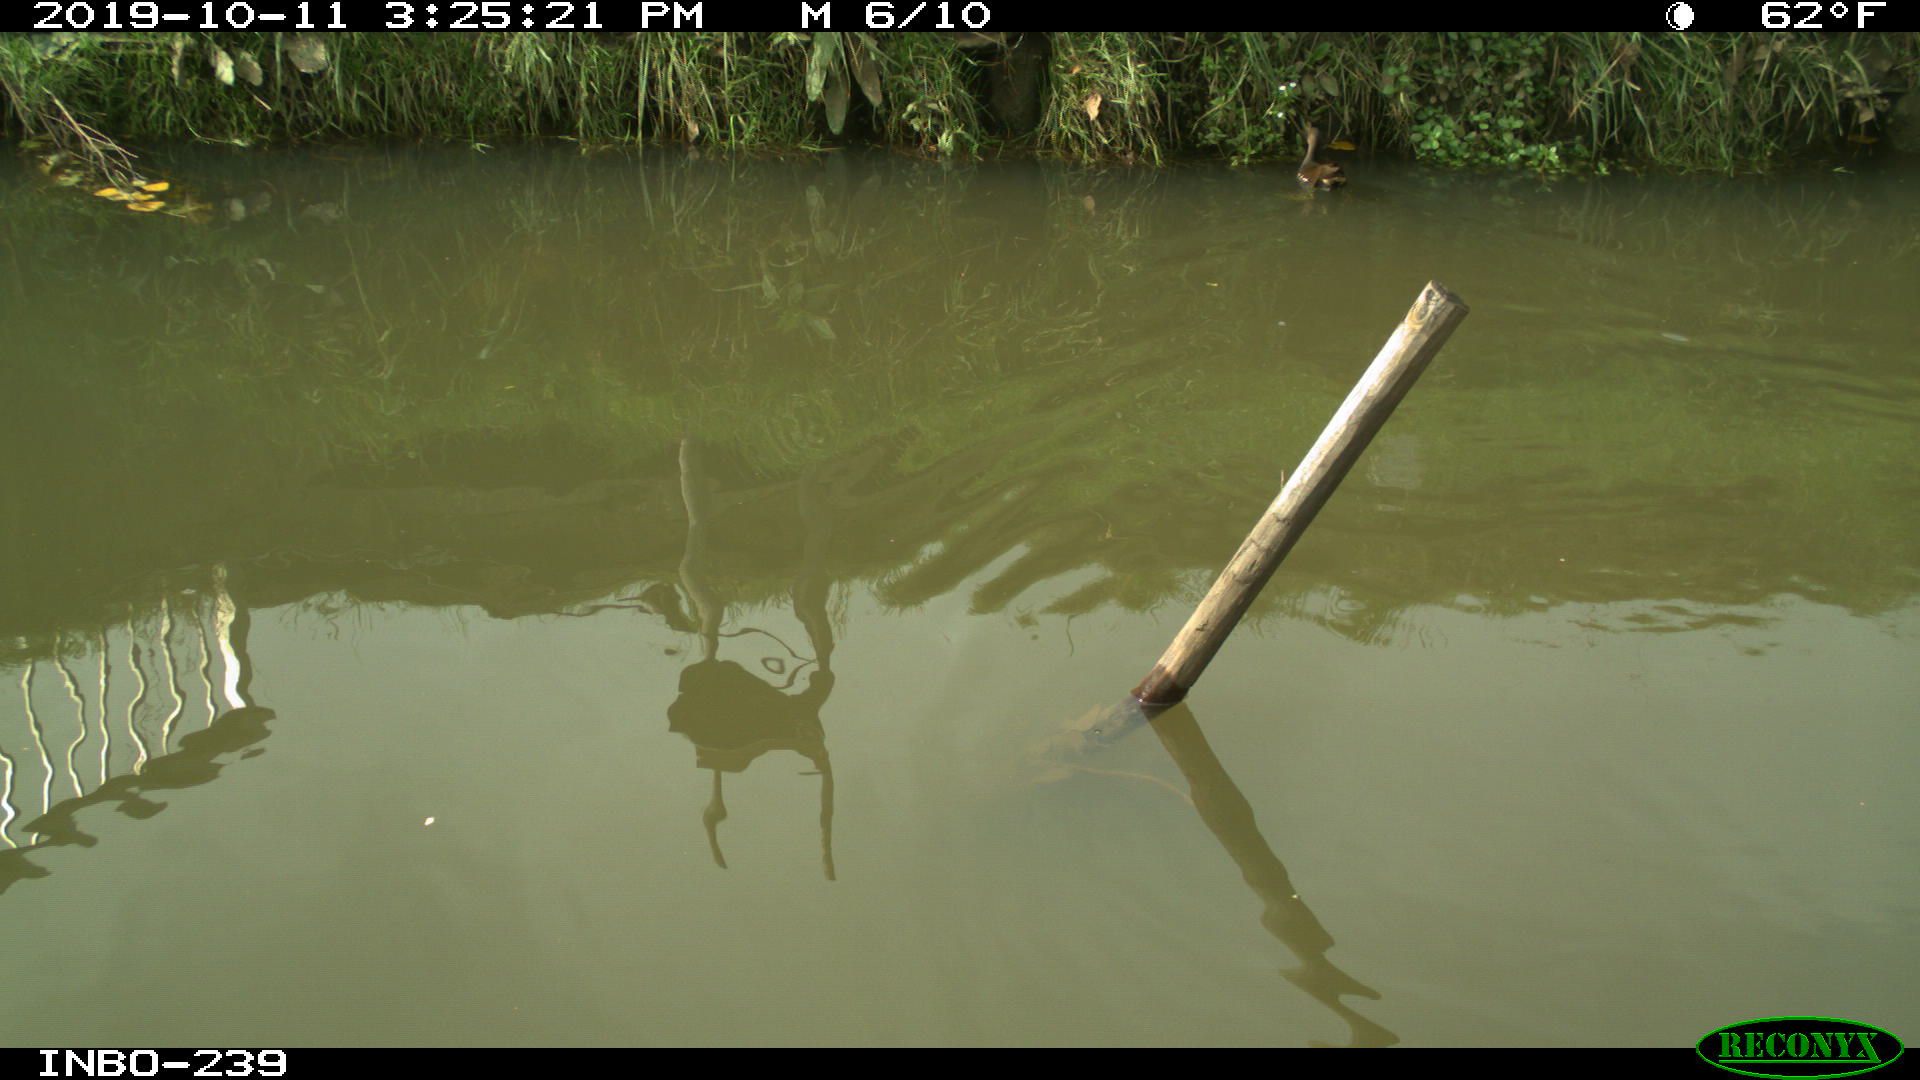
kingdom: Animalia
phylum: Chordata
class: Aves
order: Gruiformes
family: Rallidae
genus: Gallinula
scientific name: Gallinula chloropus
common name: Common moorhen
